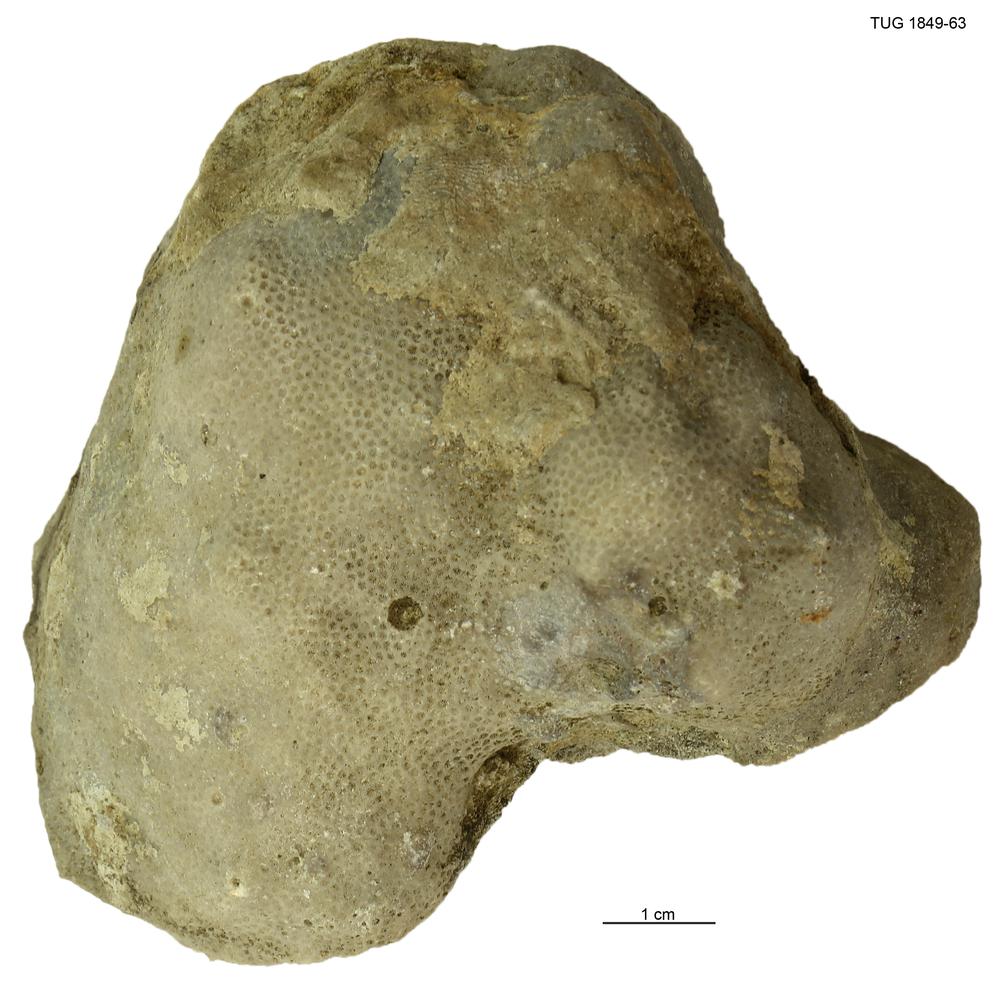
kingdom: Animalia
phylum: Cnidaria
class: Anthozoa
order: Heliolitina
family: Heliolitidae
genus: Heliolites
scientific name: Heliolites
